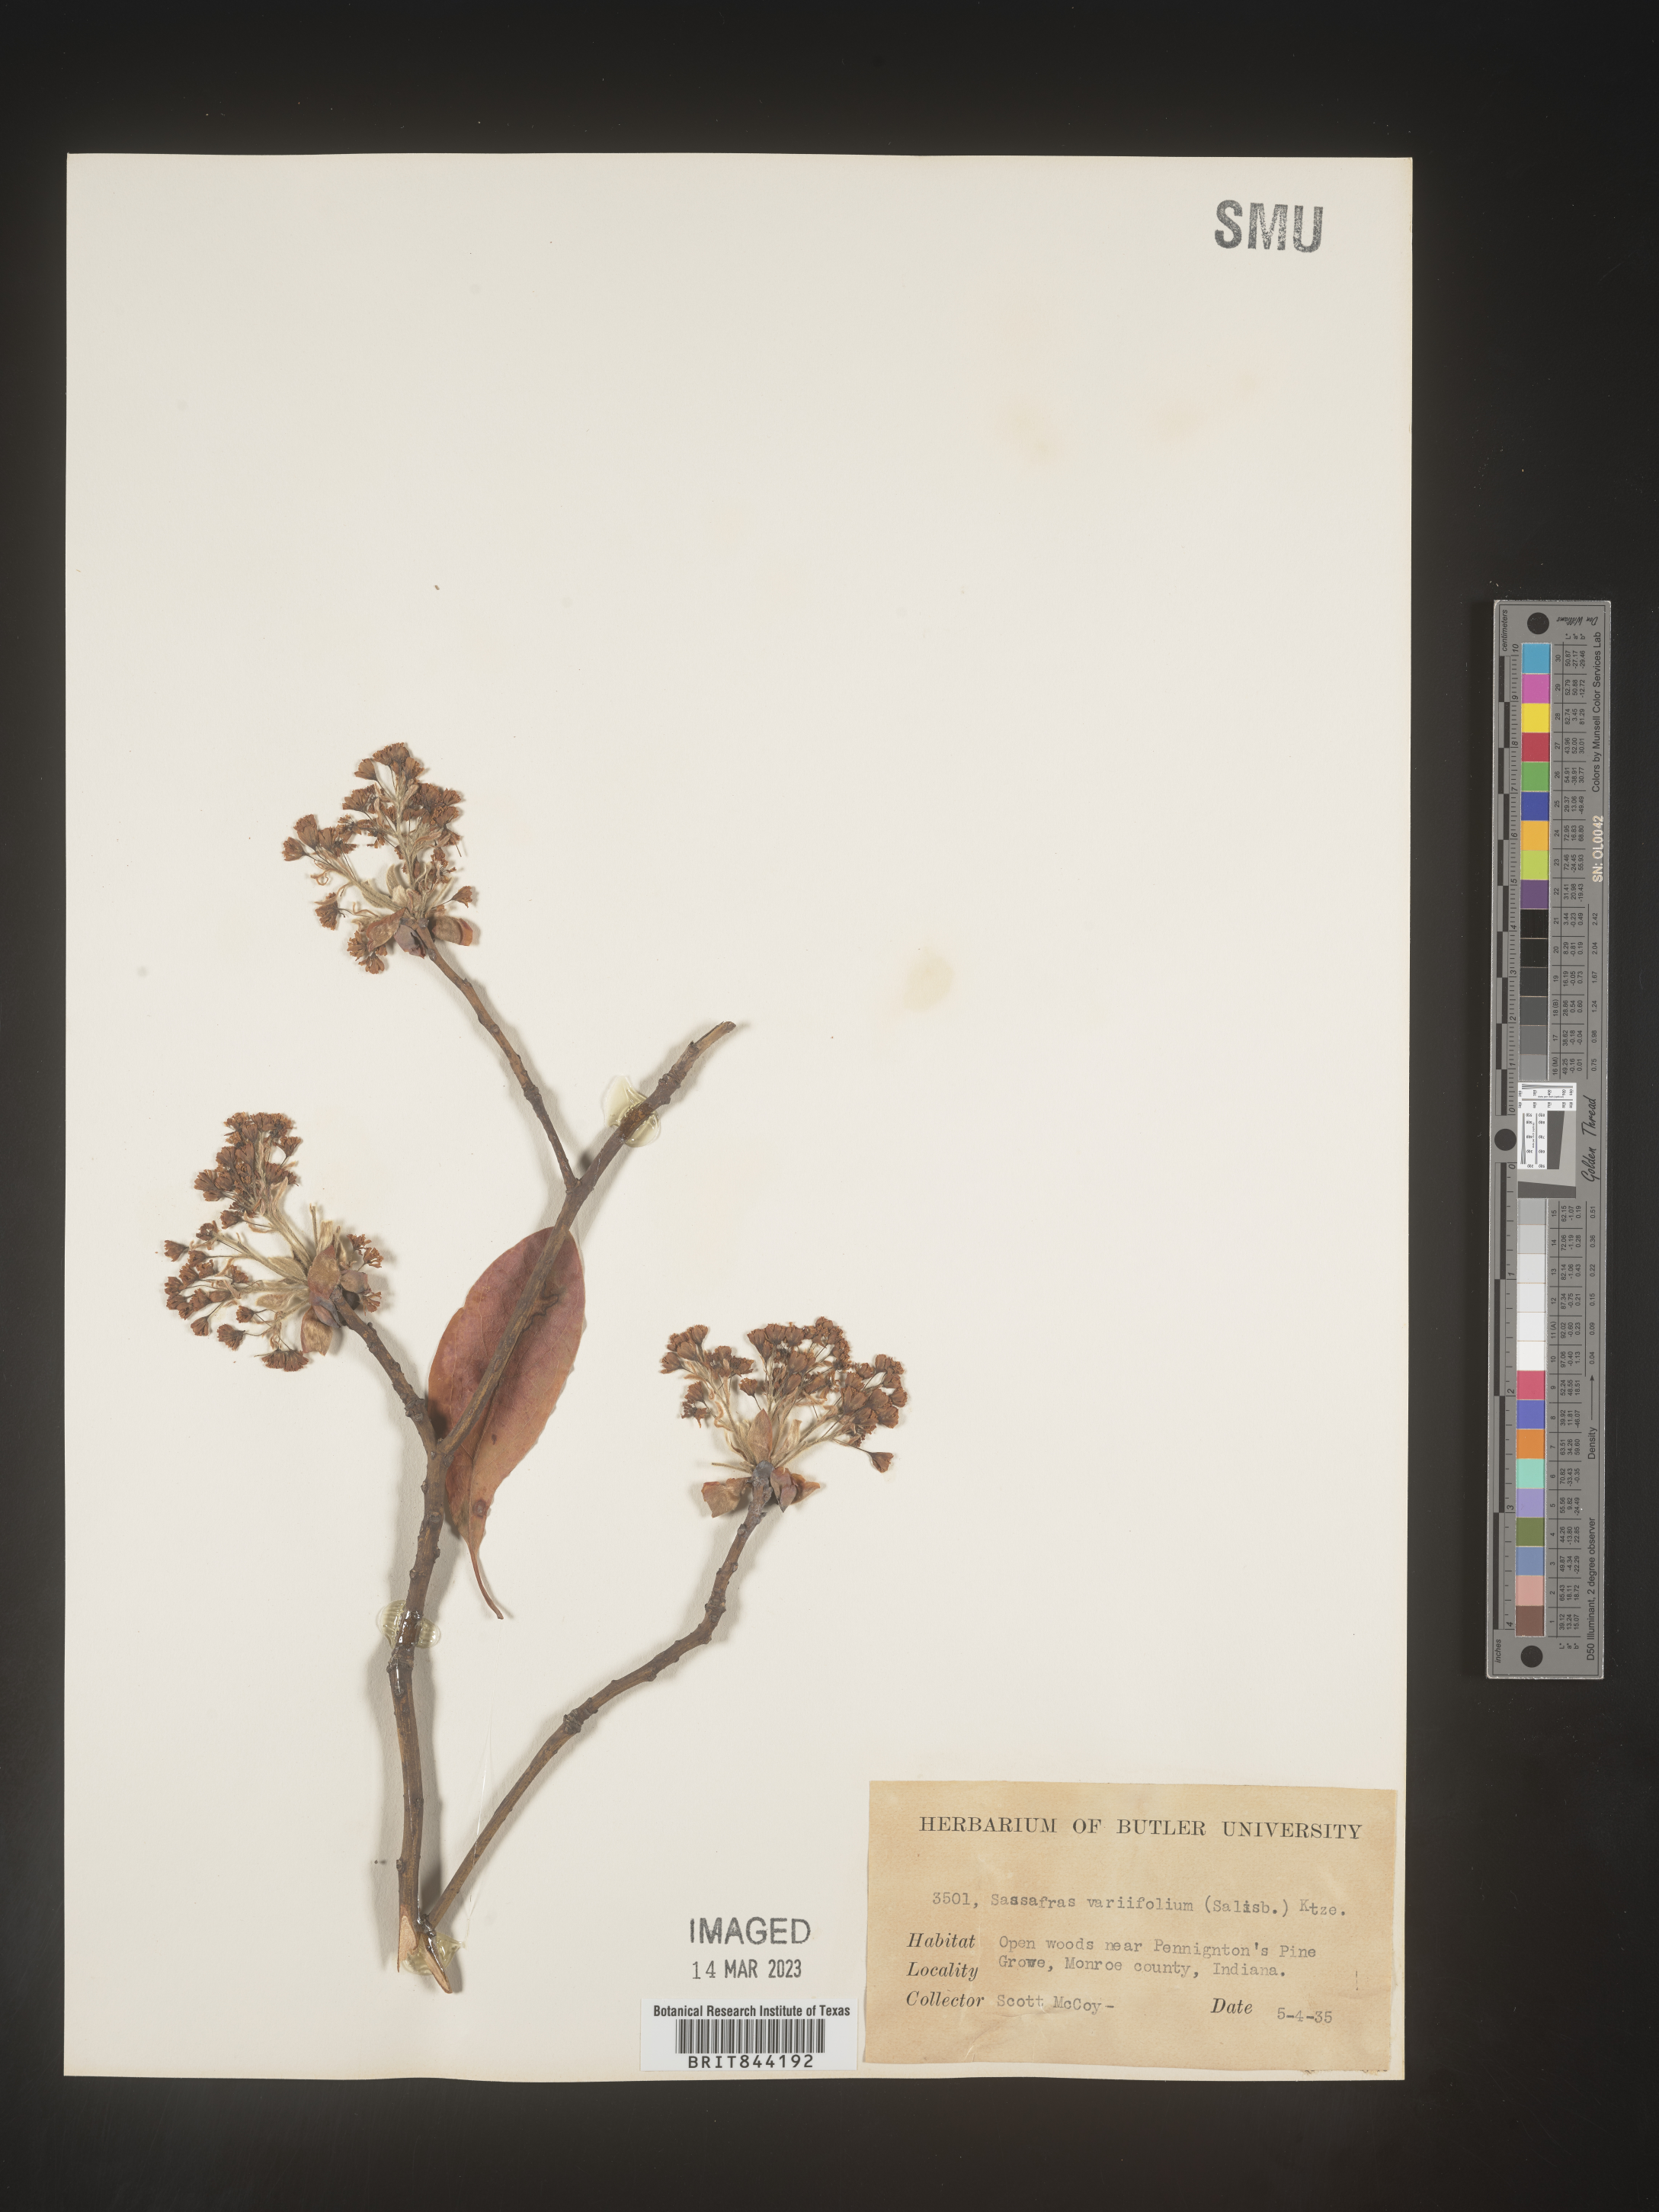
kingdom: Plantae
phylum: Tracheophyta
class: Magnoliopsida
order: Laurales
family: Lauraceae
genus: Sassafras
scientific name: Sassafras albidum
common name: Sassafras
